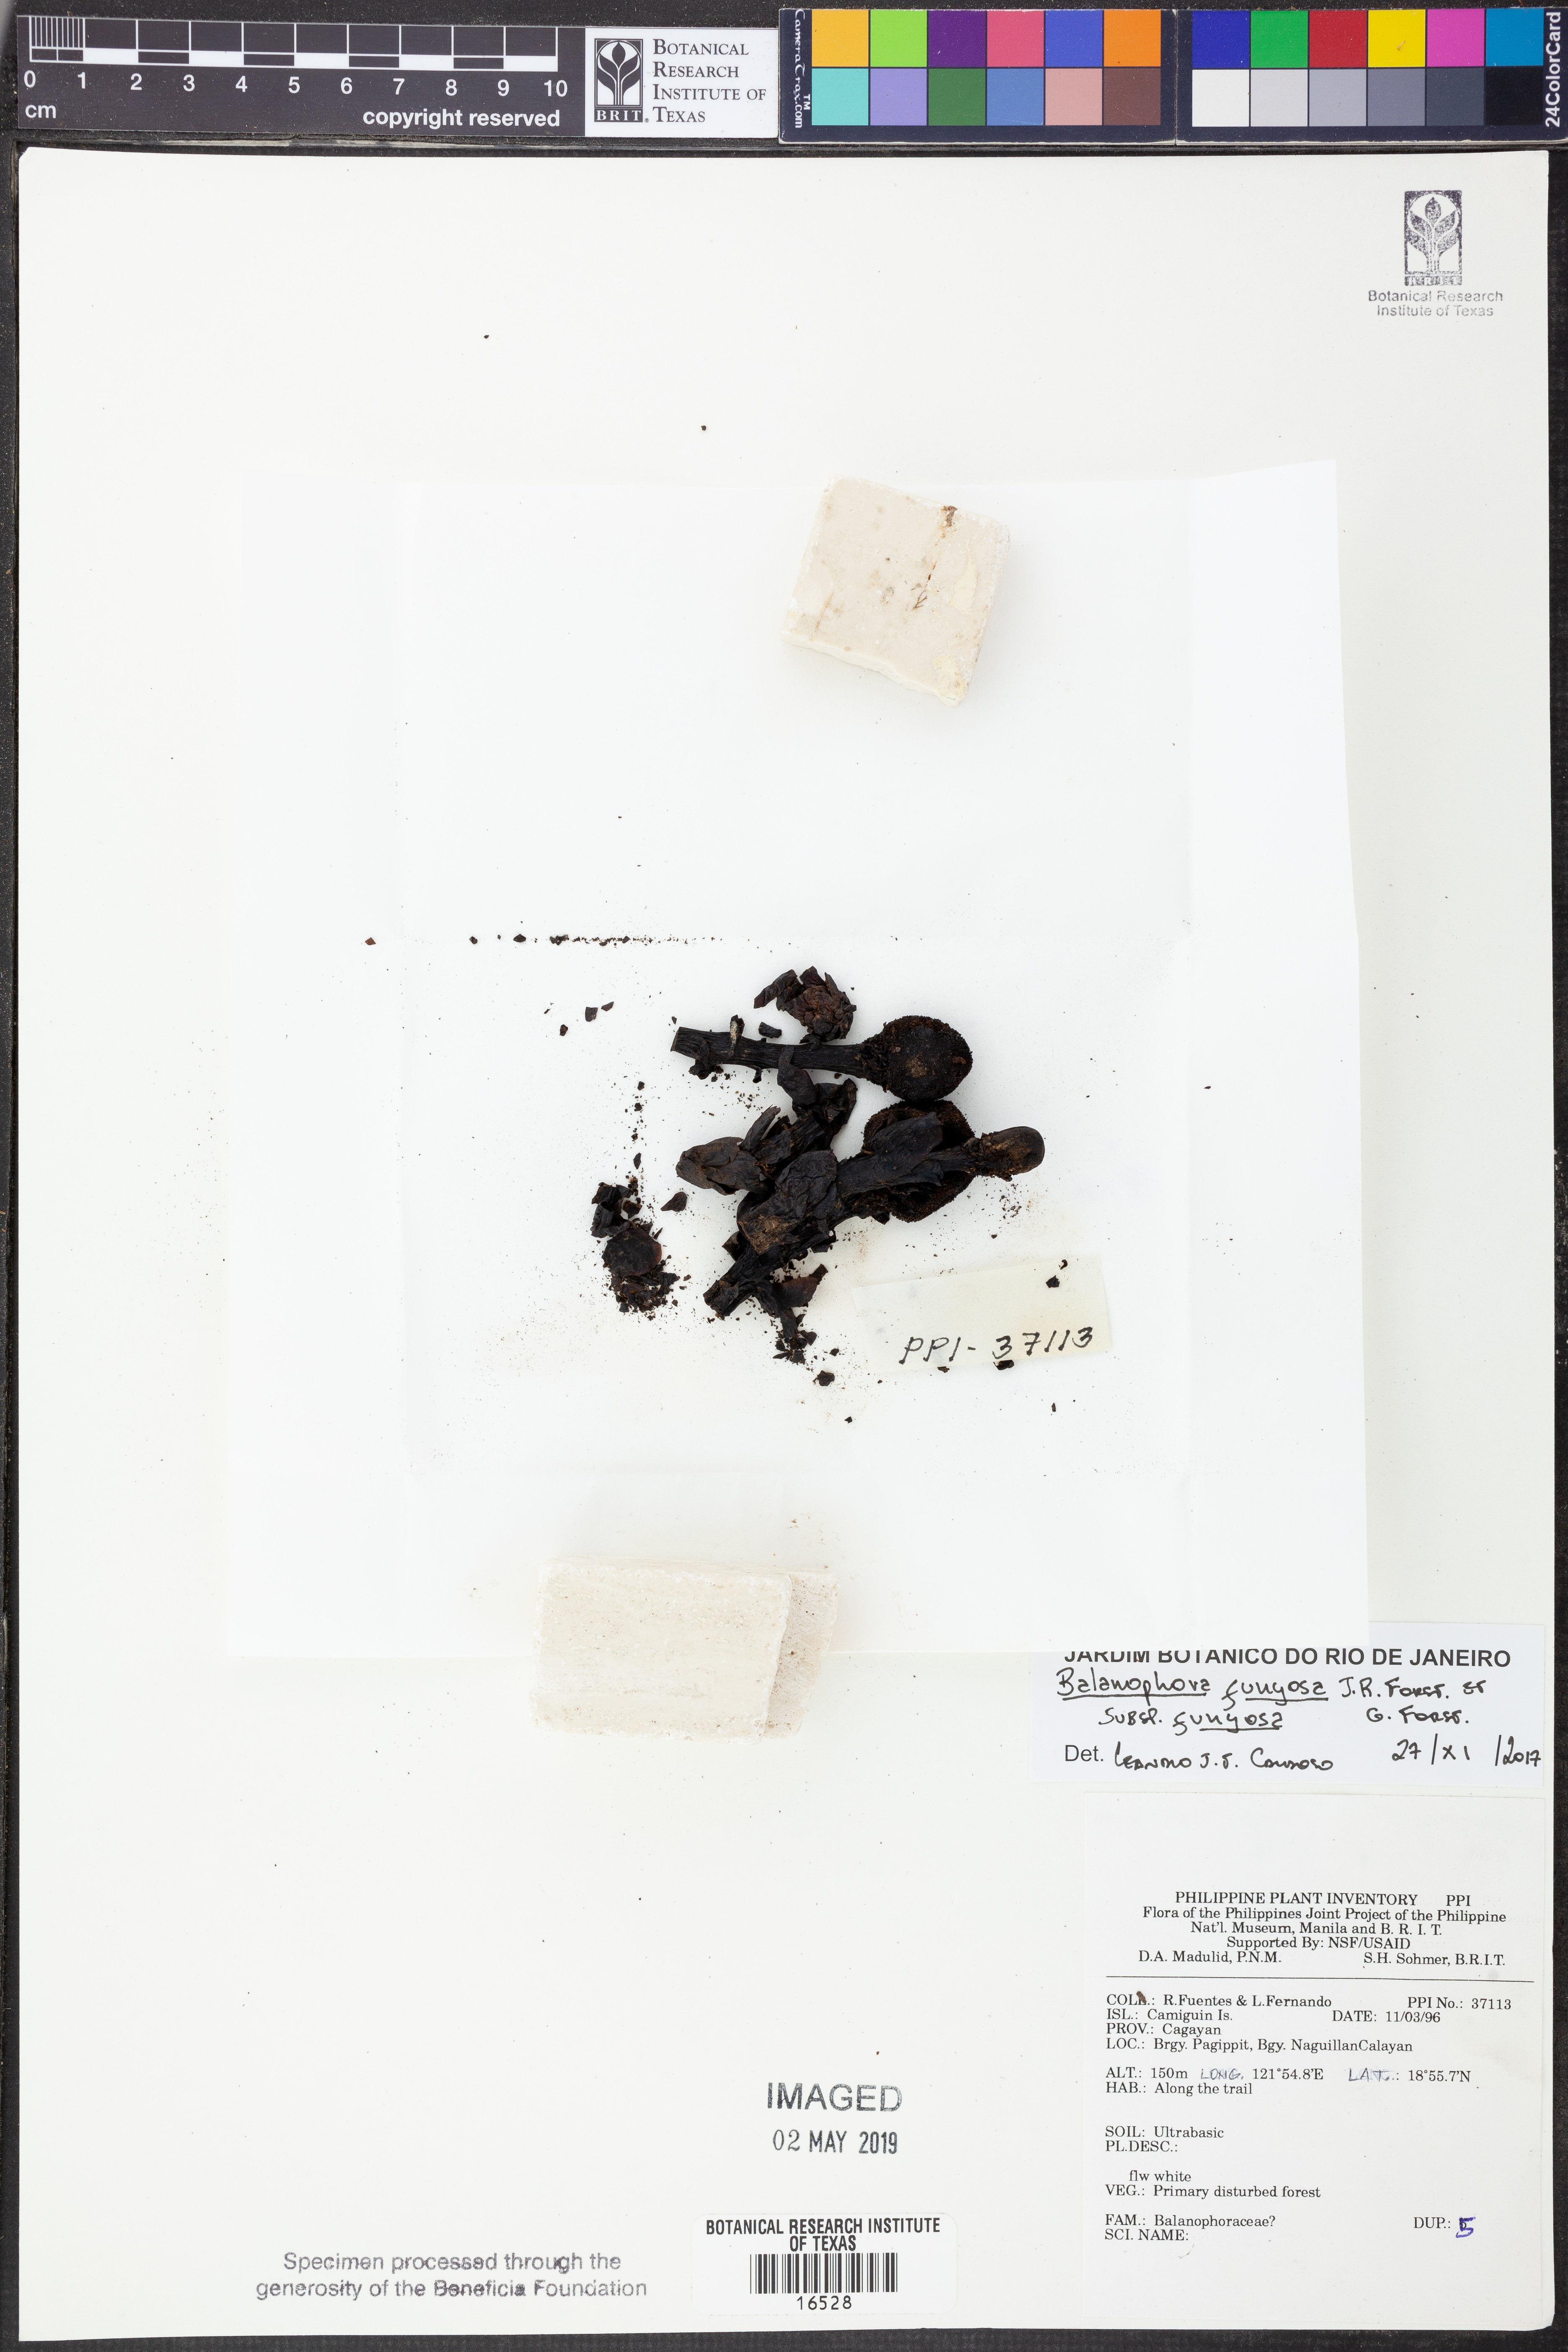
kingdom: Plantae
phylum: Tracheophyta
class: Magnoliopsida
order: Santalales
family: Balanophoraceae
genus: Balanophora
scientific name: Balanophora fungosa
